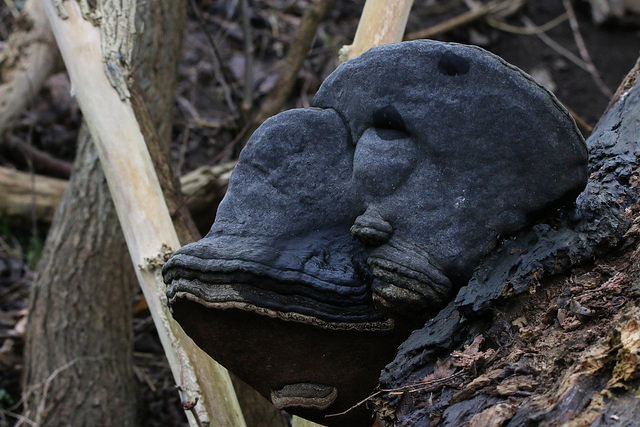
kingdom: Fungi
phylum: Basidiomycota
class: Agaricomycetes
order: Polyporales
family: Polyporaceae
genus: Fomes
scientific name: Fomes fomentarius
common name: tøndersvamp
